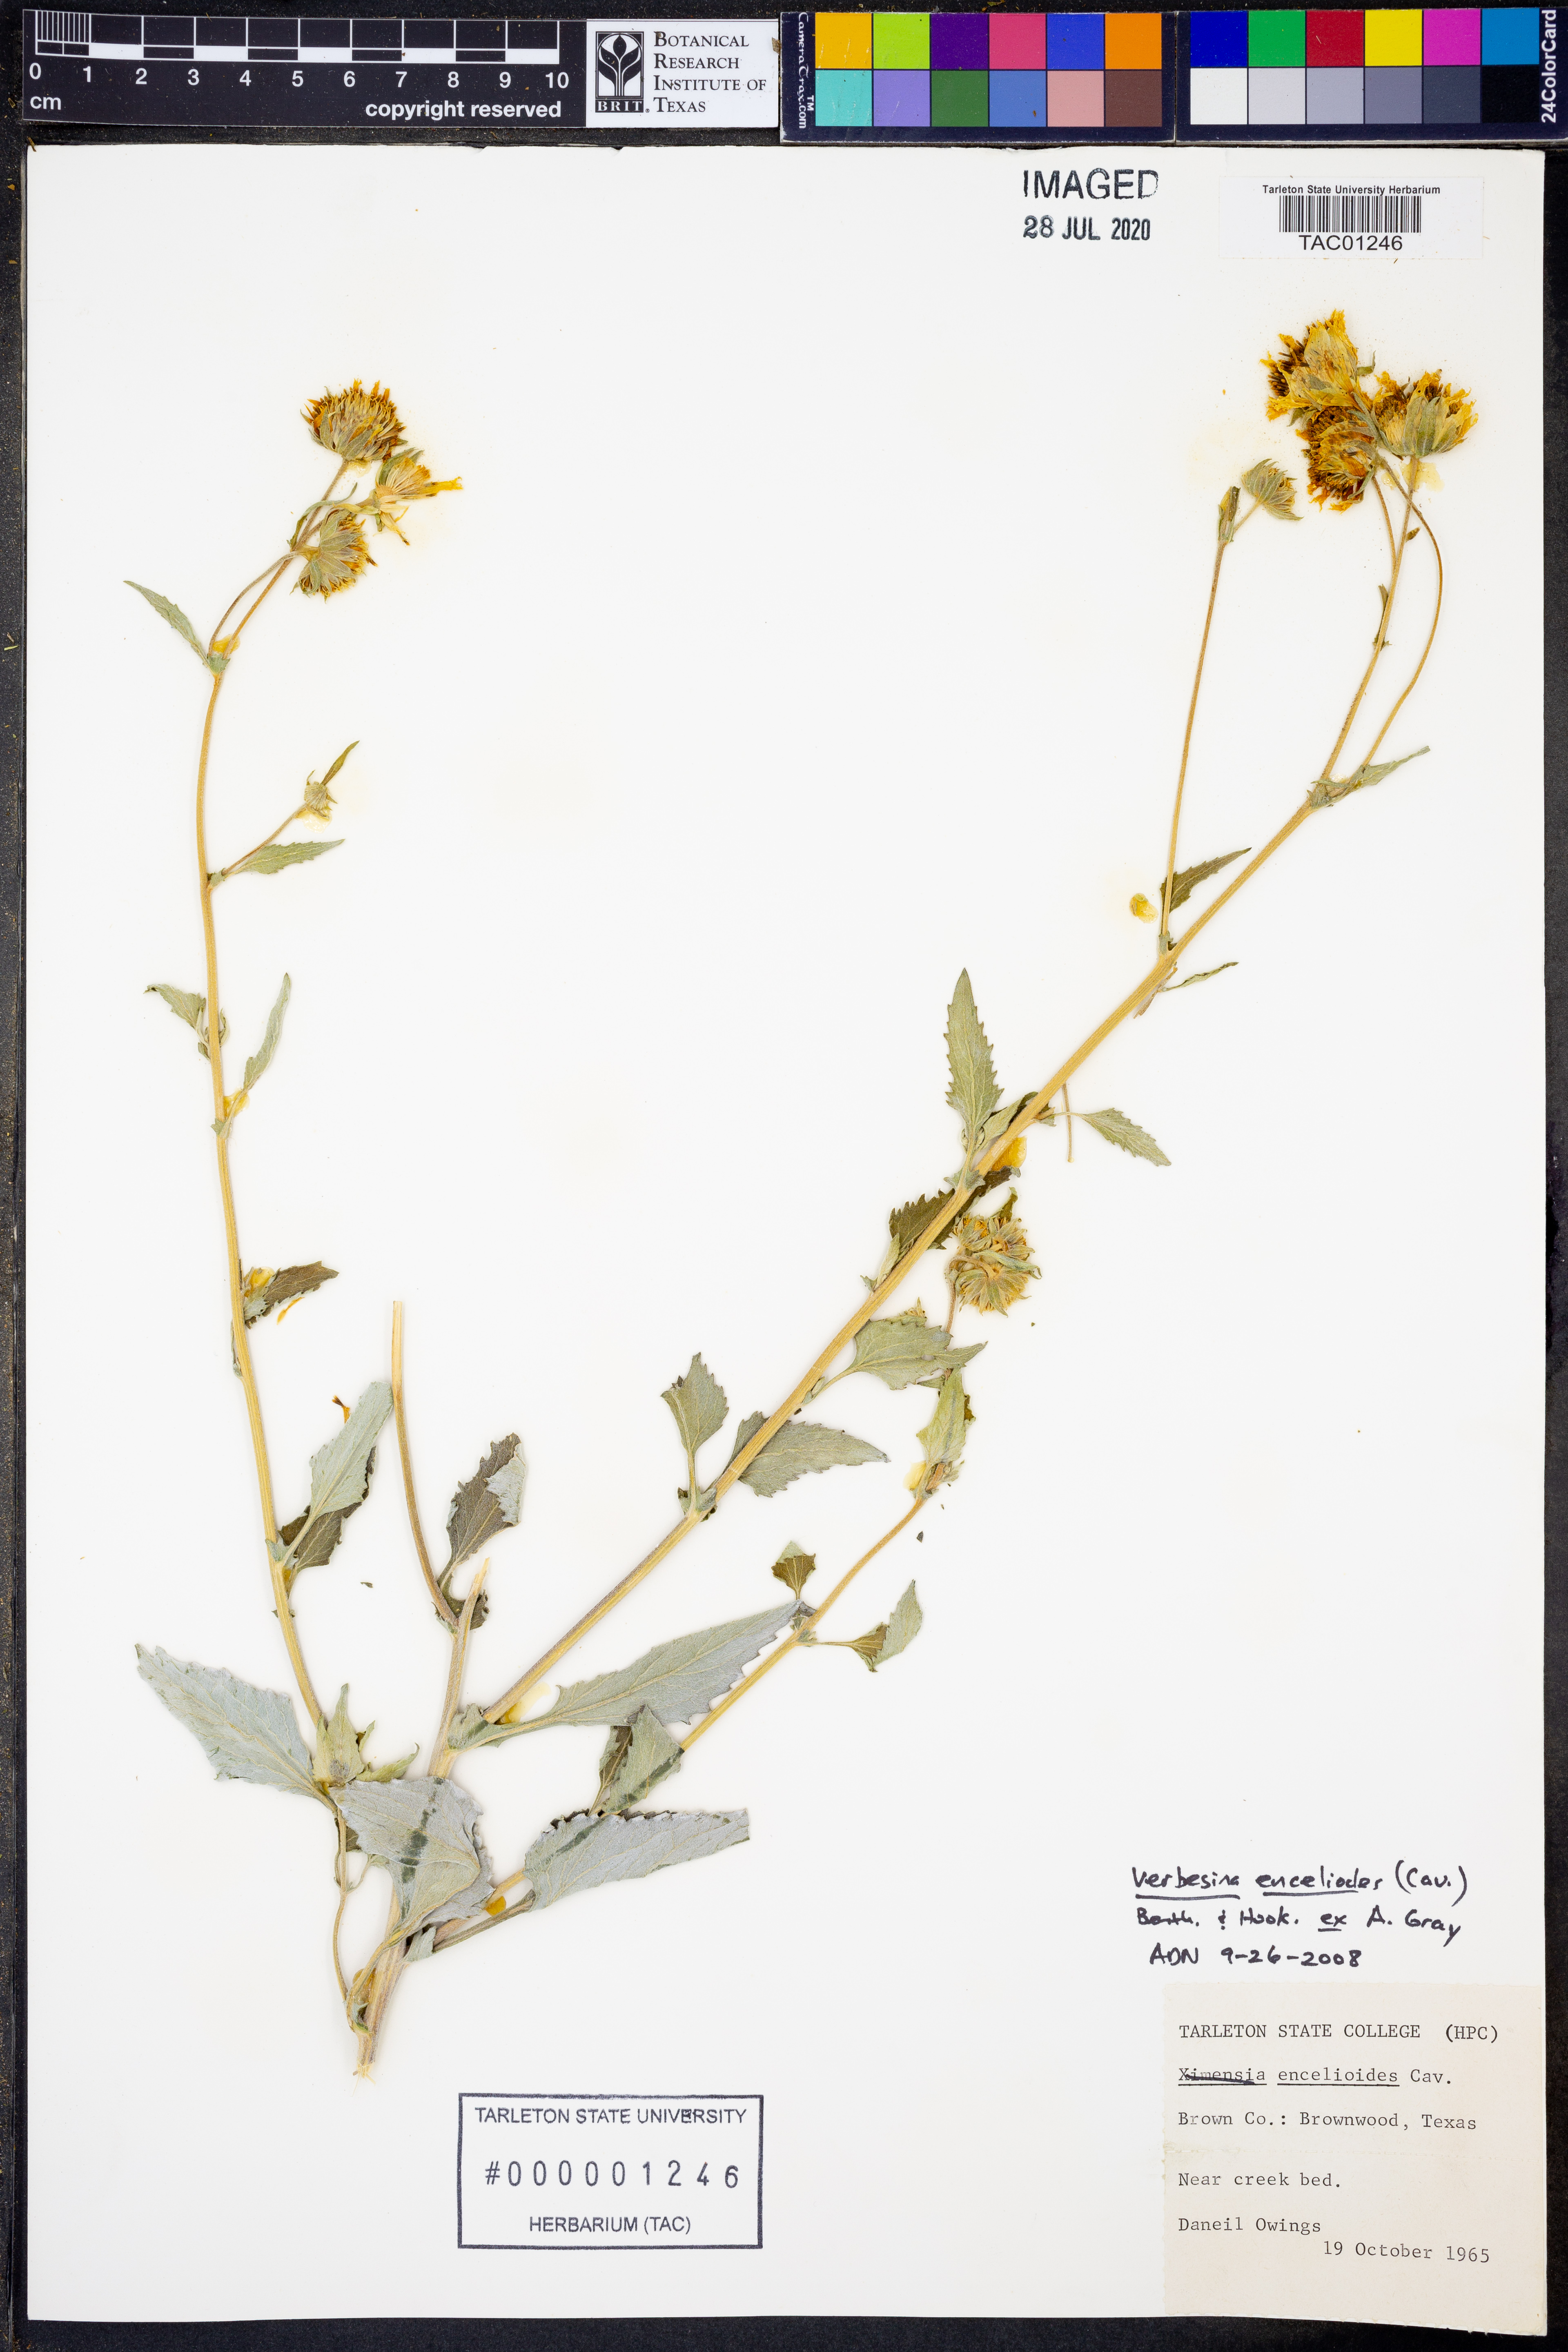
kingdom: Plantae
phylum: Tracheophyta
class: Magnoliopsida
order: Asterales
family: Asteraceae
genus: Verbesina
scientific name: Verbesina encelioides
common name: Golden crownbeard
